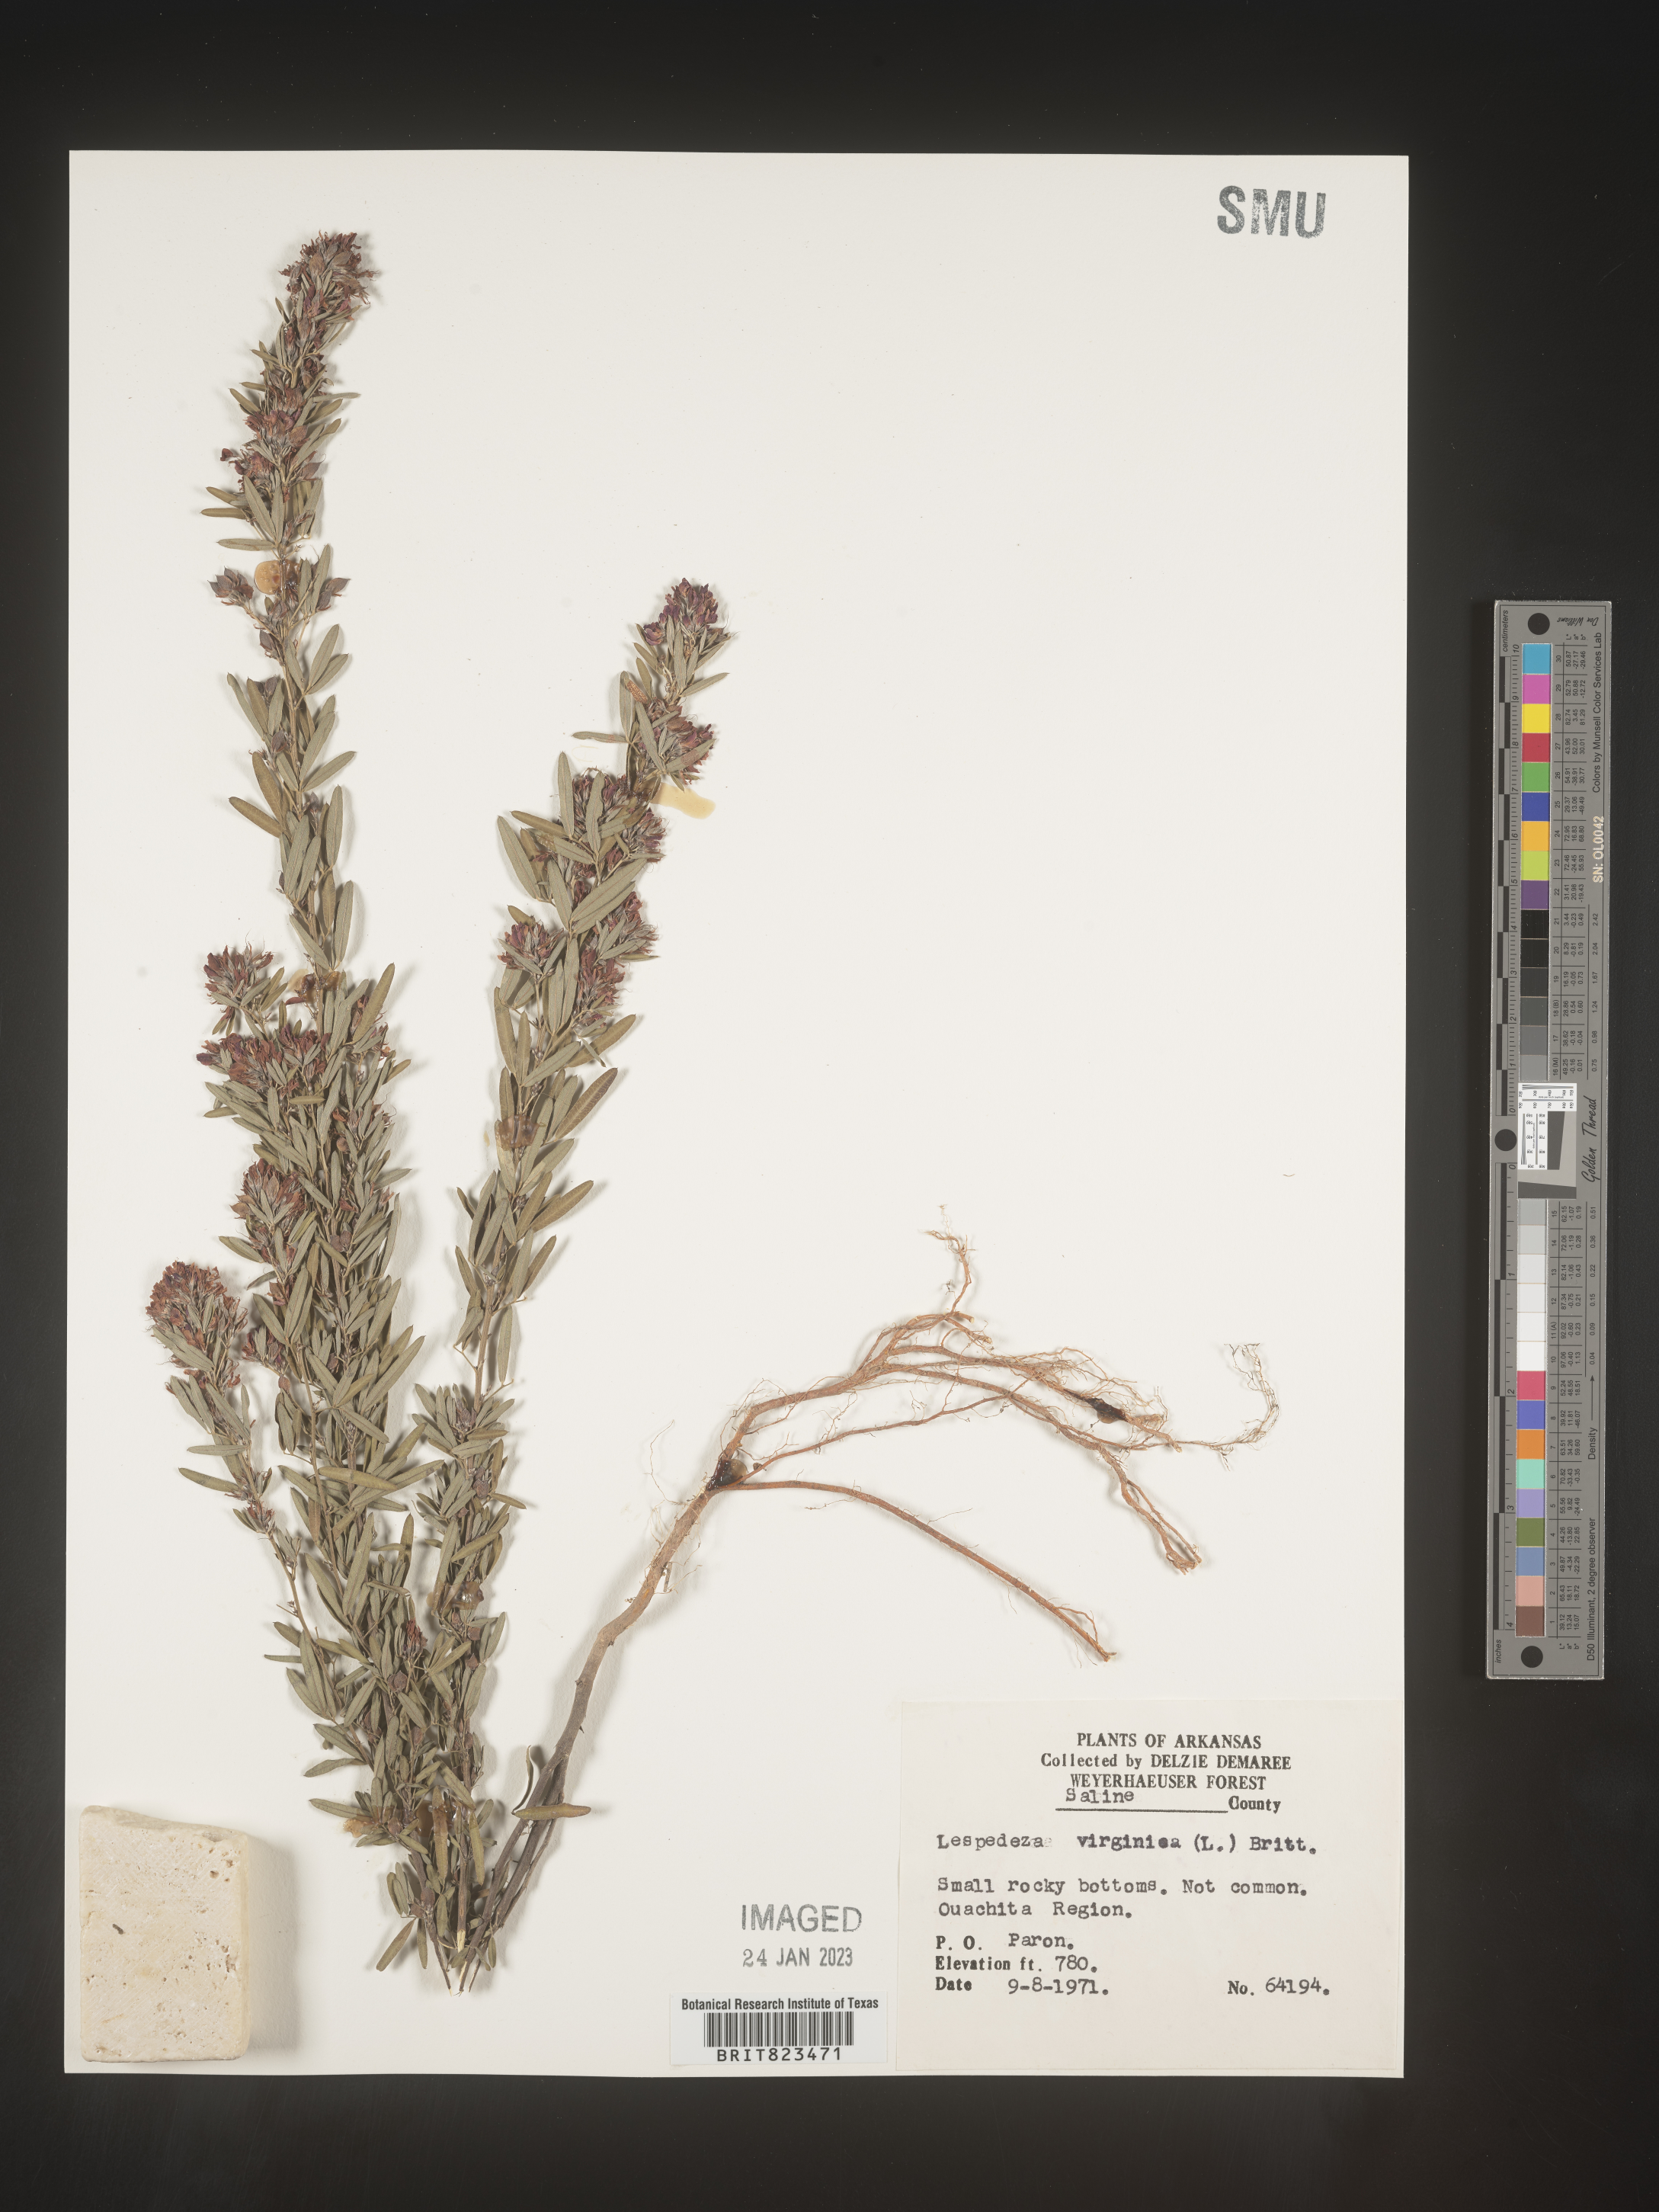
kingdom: Plantae
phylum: Tracheophyta
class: Magnoliopsida
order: Fabales
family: Fabaceae
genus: Lespedeza
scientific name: Lespedeza virginica
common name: Slender bush-clover
